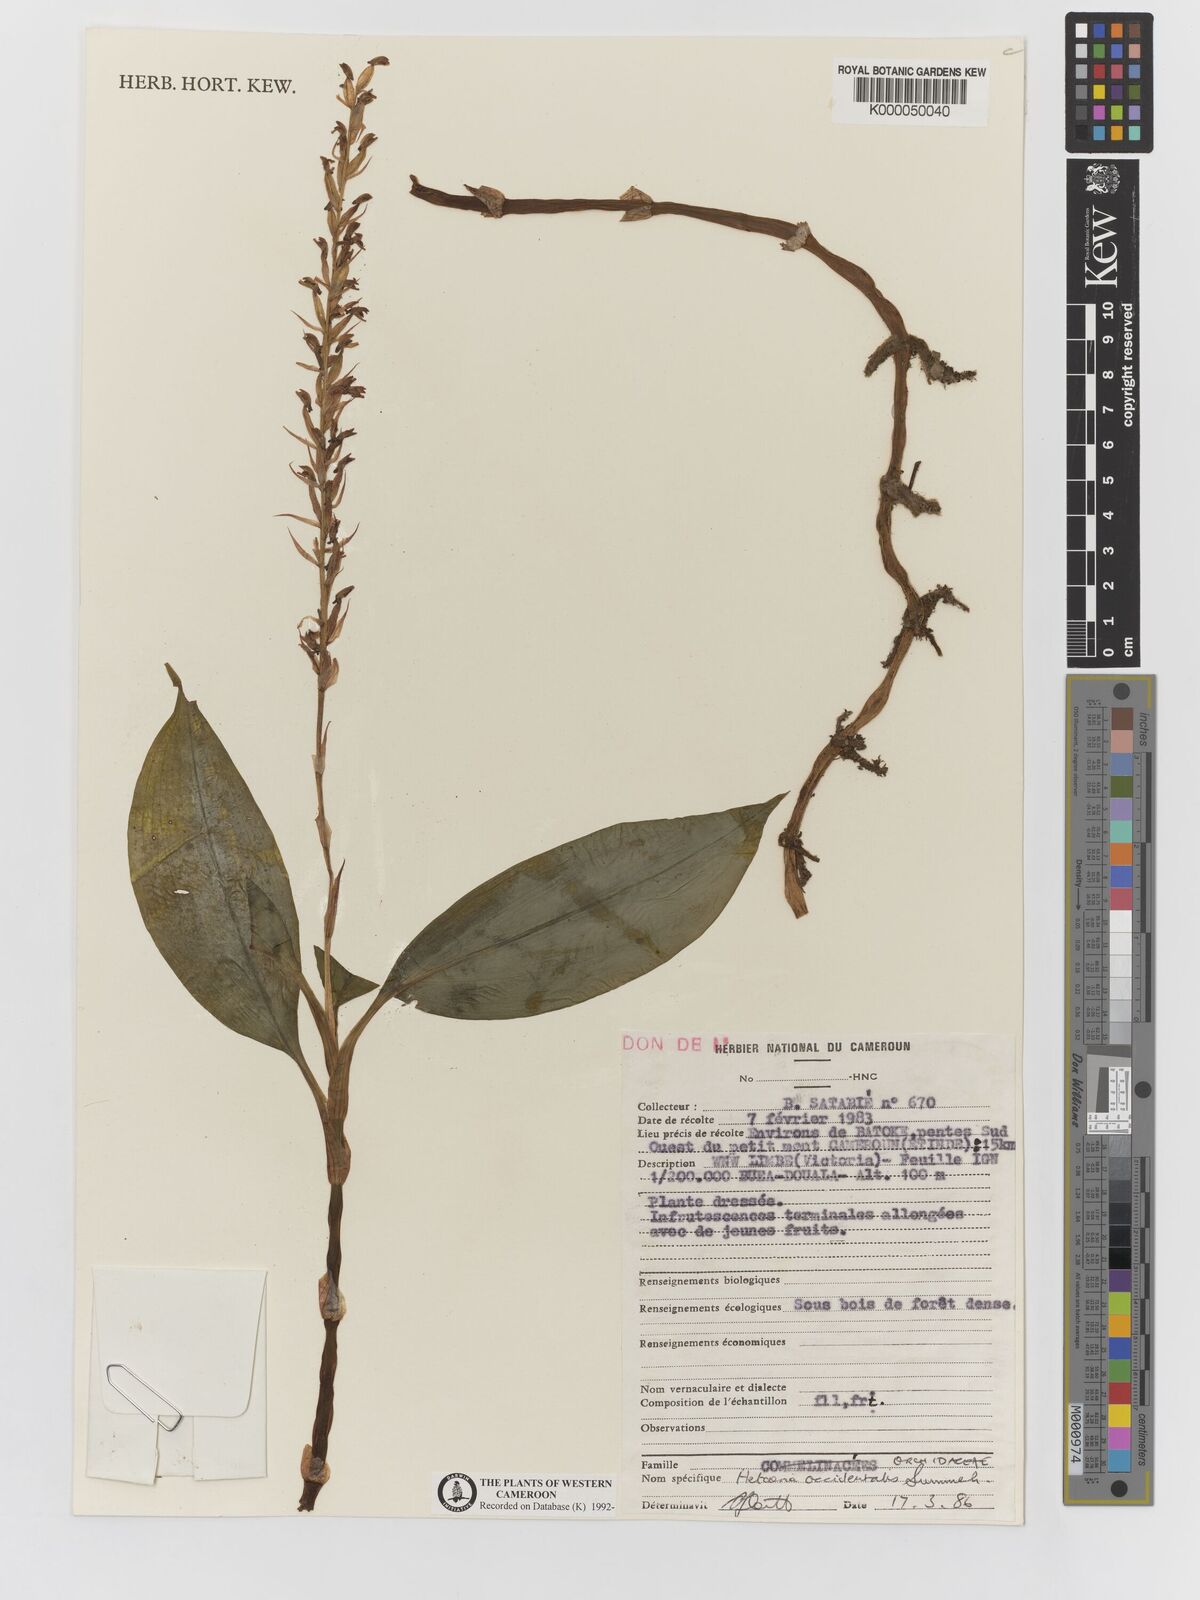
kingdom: Plantae
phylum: Tracheophyta
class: Liliopsida
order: Asparagales
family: Orchidaceae
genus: Hetaeria
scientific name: Hetaeria occidentalis
